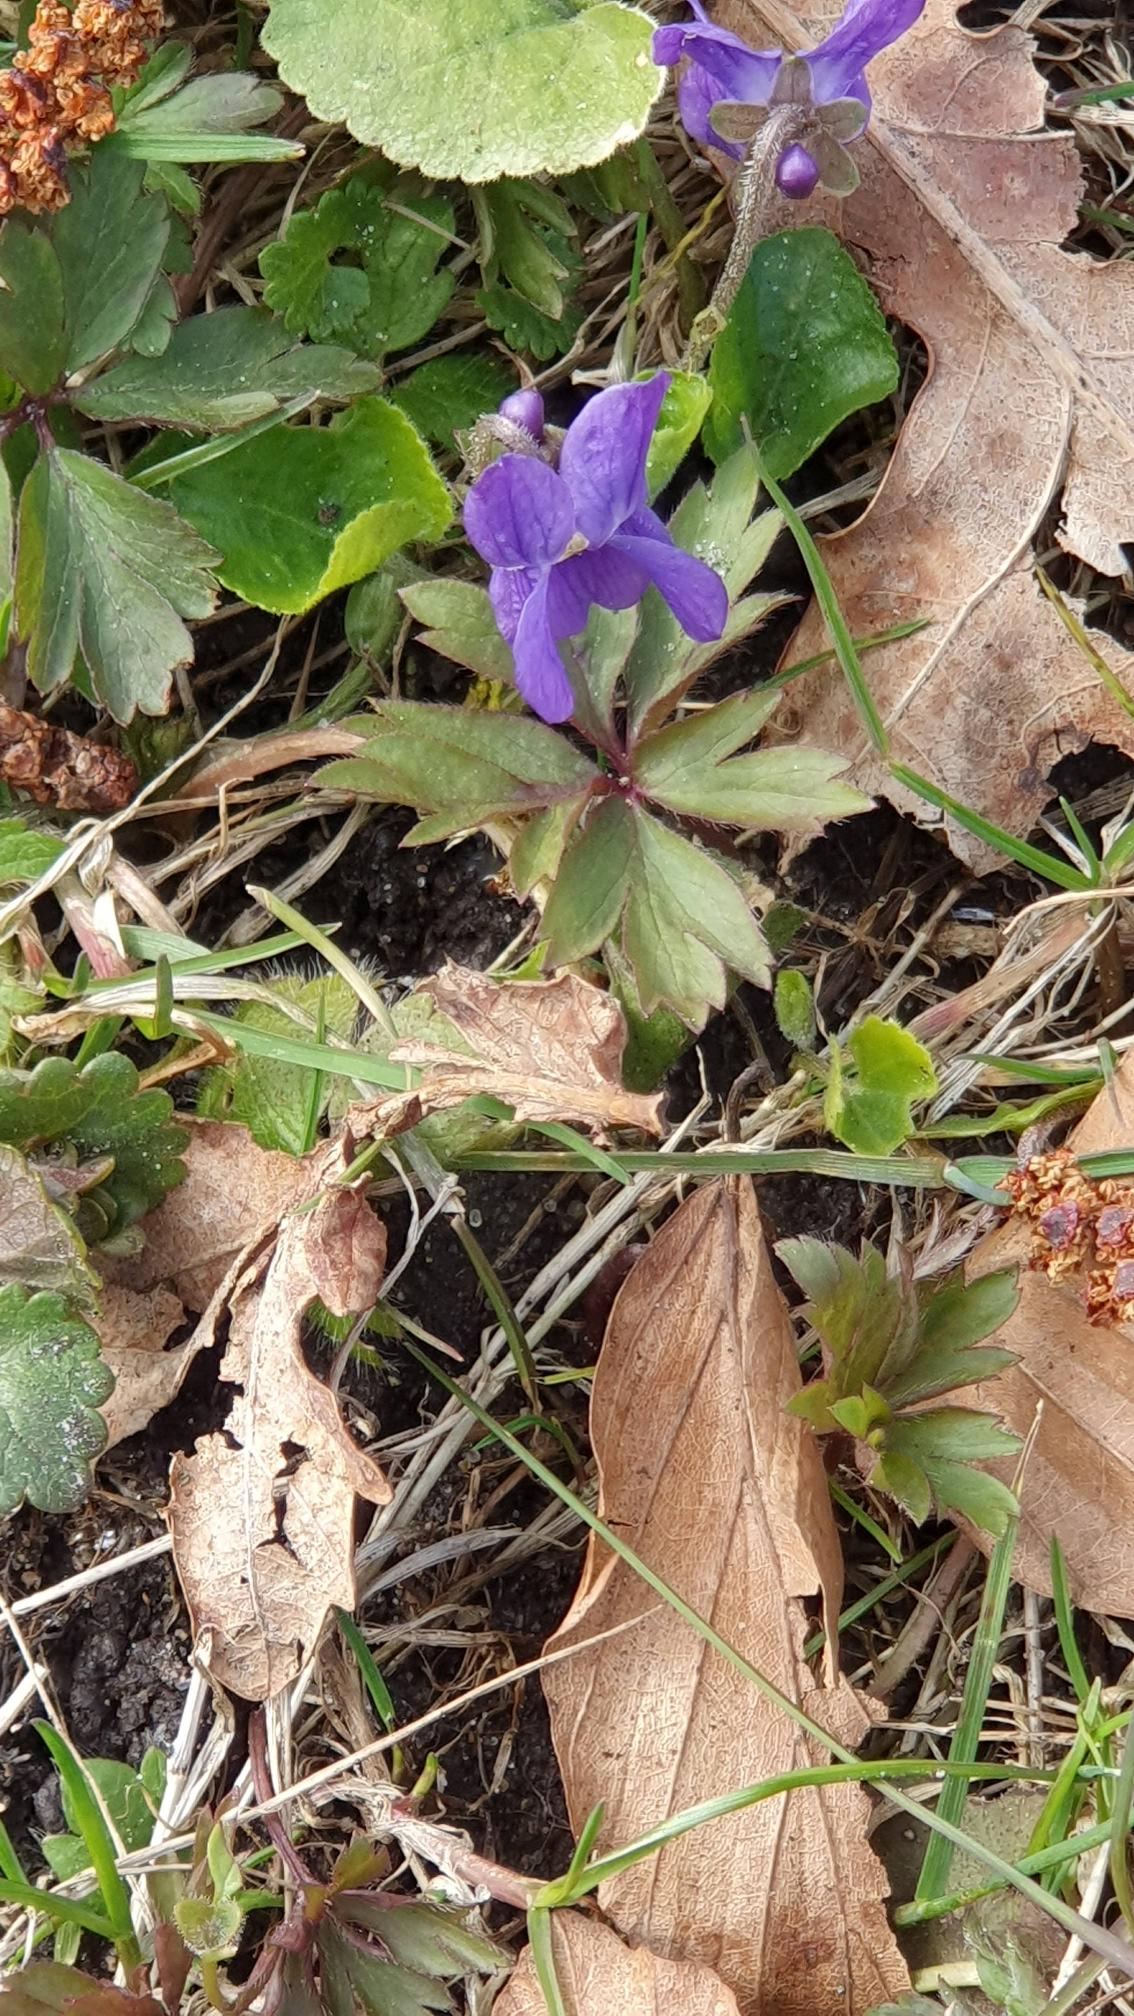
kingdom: Plantae
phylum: Tracheophyta
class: Magnoliopsida
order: Malpighiales
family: Violaceae
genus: Viola
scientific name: Viola odorata
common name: Marts-viol
